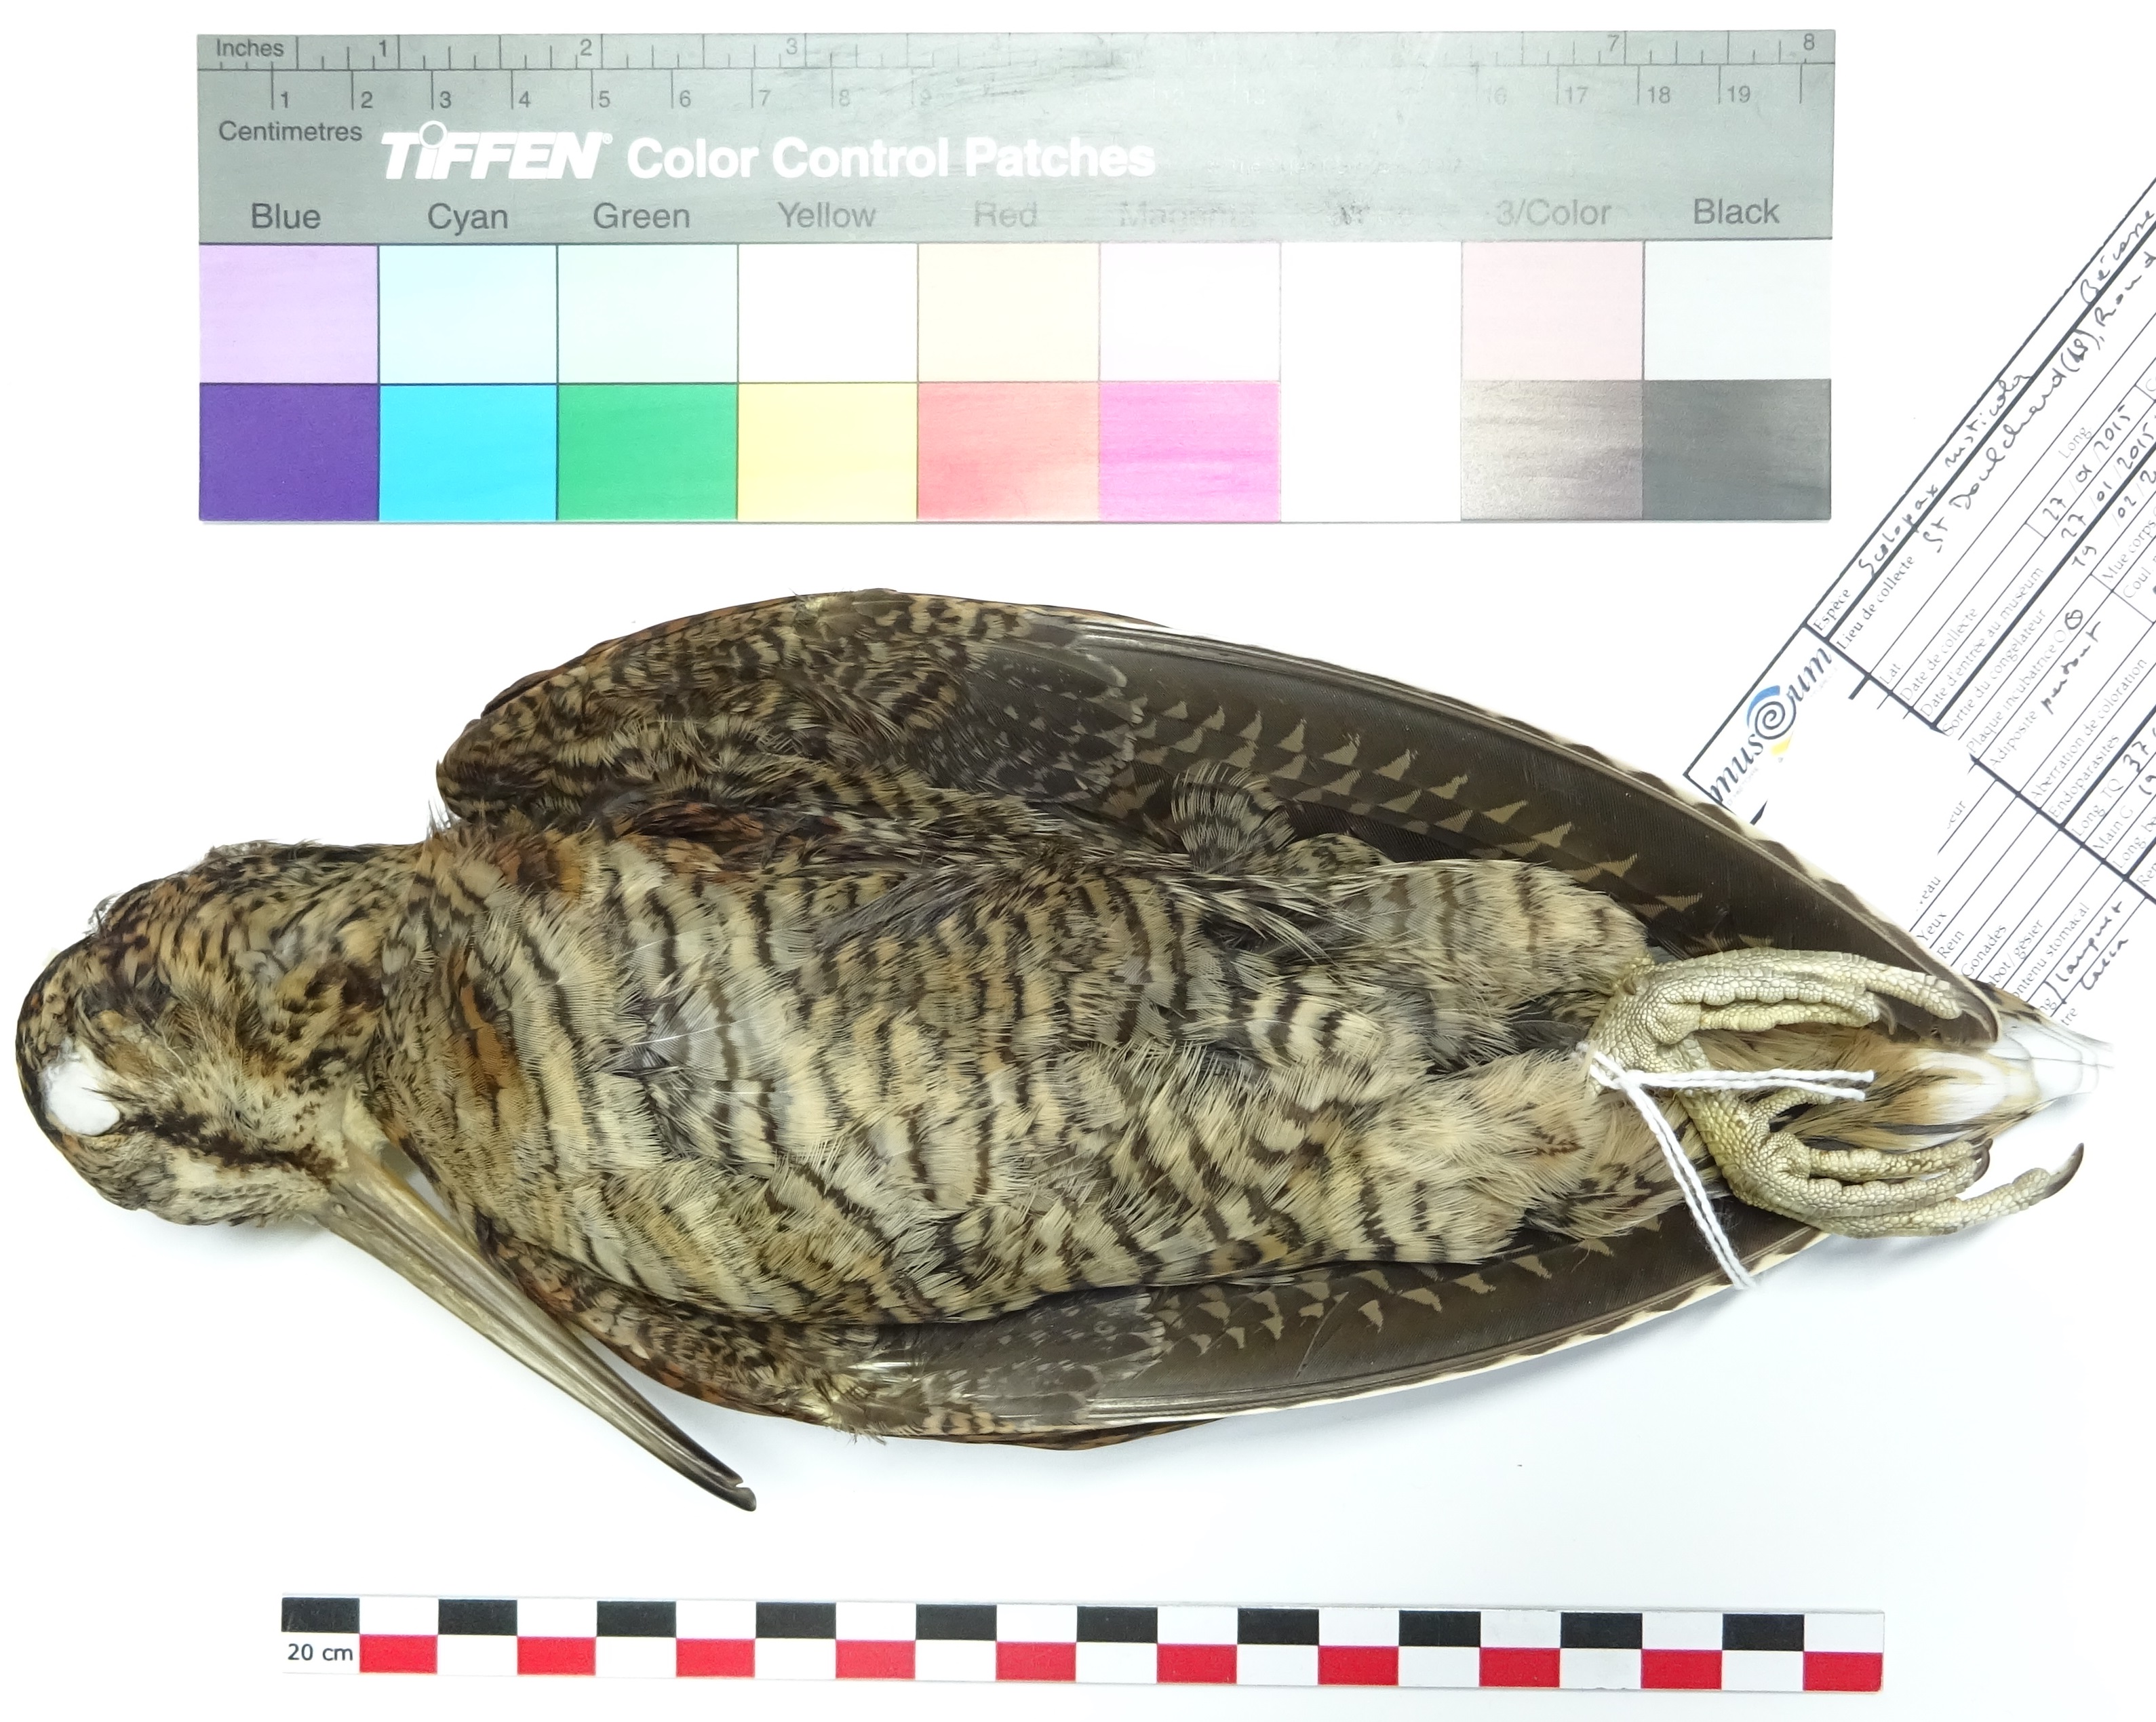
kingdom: Animalia
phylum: Chordata
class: Aves
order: Charadriiformes
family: Scolopacidae
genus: Scolopax
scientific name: Scolopax rusticola
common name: Eurasian woodcock
